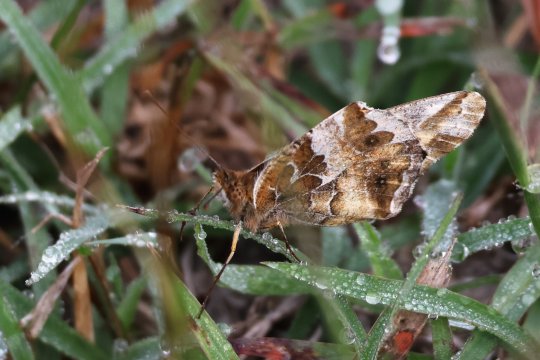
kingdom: Animalia
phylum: Arthropoda
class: Insecta
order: Lepidoptera
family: Nymphalidae
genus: Euptoieta
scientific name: Euptoieta claudia
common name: Variegated Fritillary
